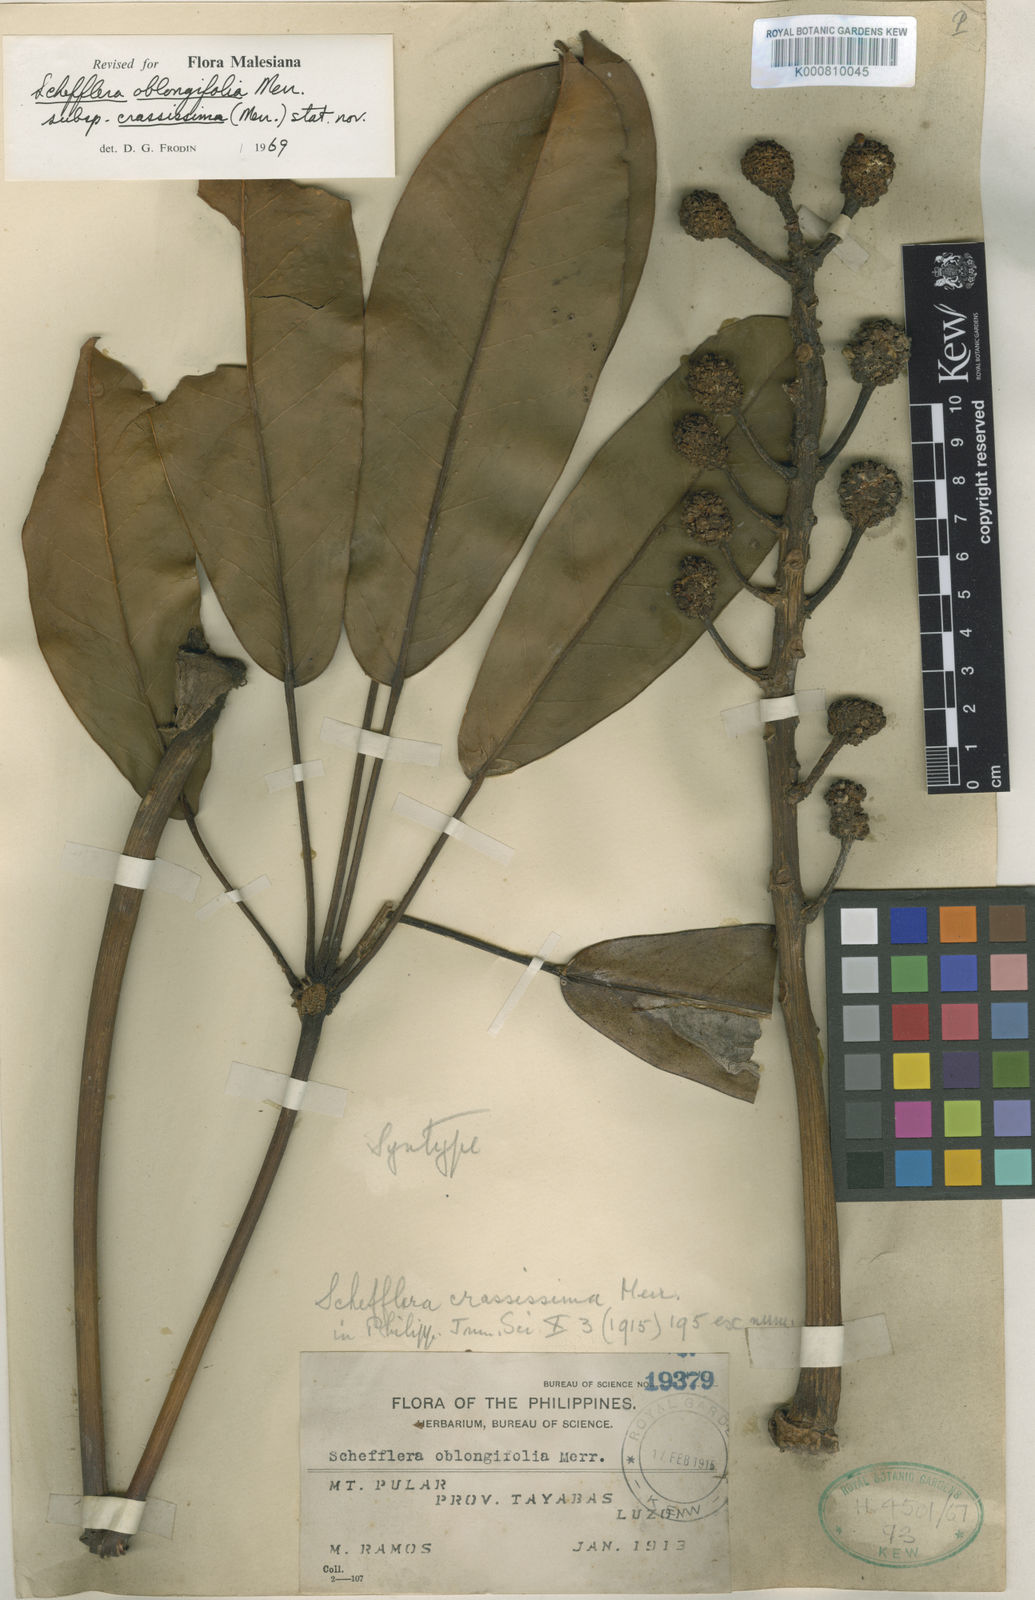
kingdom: Plantae
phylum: Tracheophyta
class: Magnoliopsida
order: Apiales
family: Araliaceae
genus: Heptapleurum
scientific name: Heptapleurum oblongifolium
